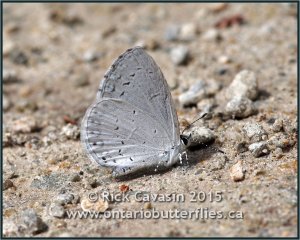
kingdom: Animalia
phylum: Arthropoda
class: Insecta
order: Lepidoptera
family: Lycaenidae
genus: Cyaniris
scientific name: Cyaniris neglecta
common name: Summer Azure
